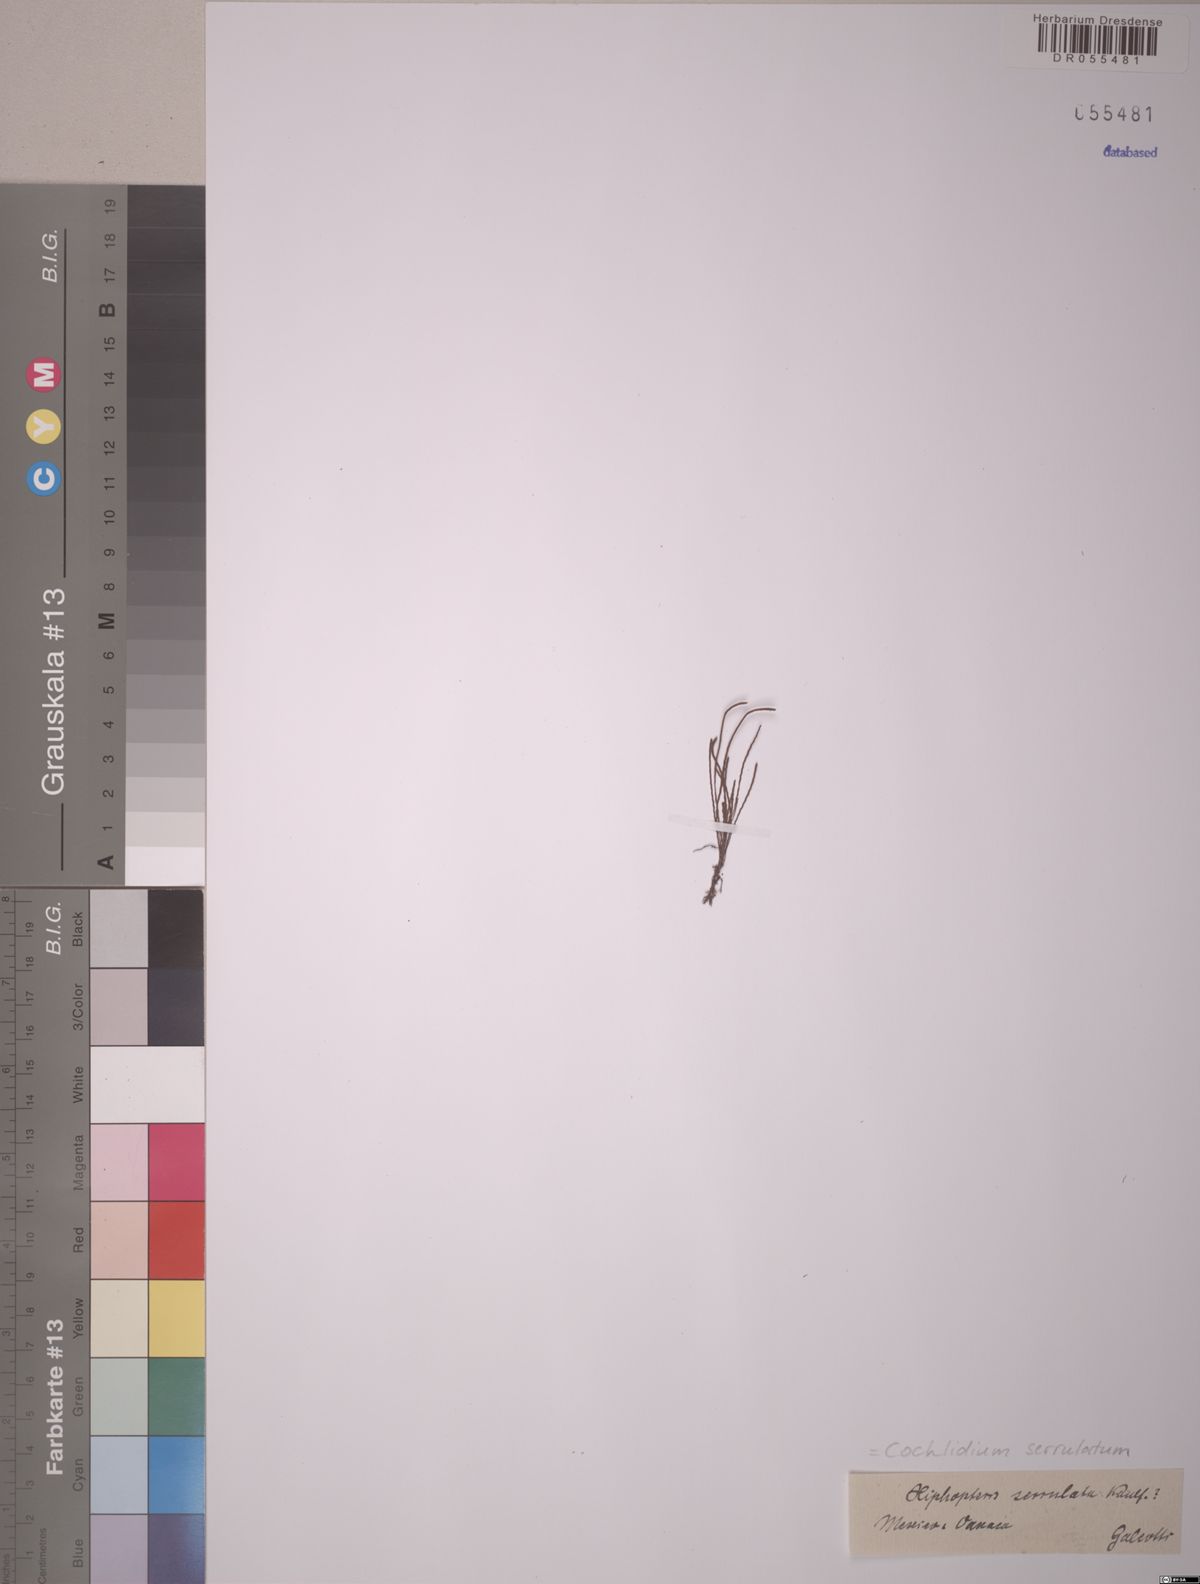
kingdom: Plantae
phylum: Tracheophyta
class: Polypodiopsida
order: Polypodiales
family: Polypodiaceae
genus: Cochlidium
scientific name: Cochlidium serrulatum
